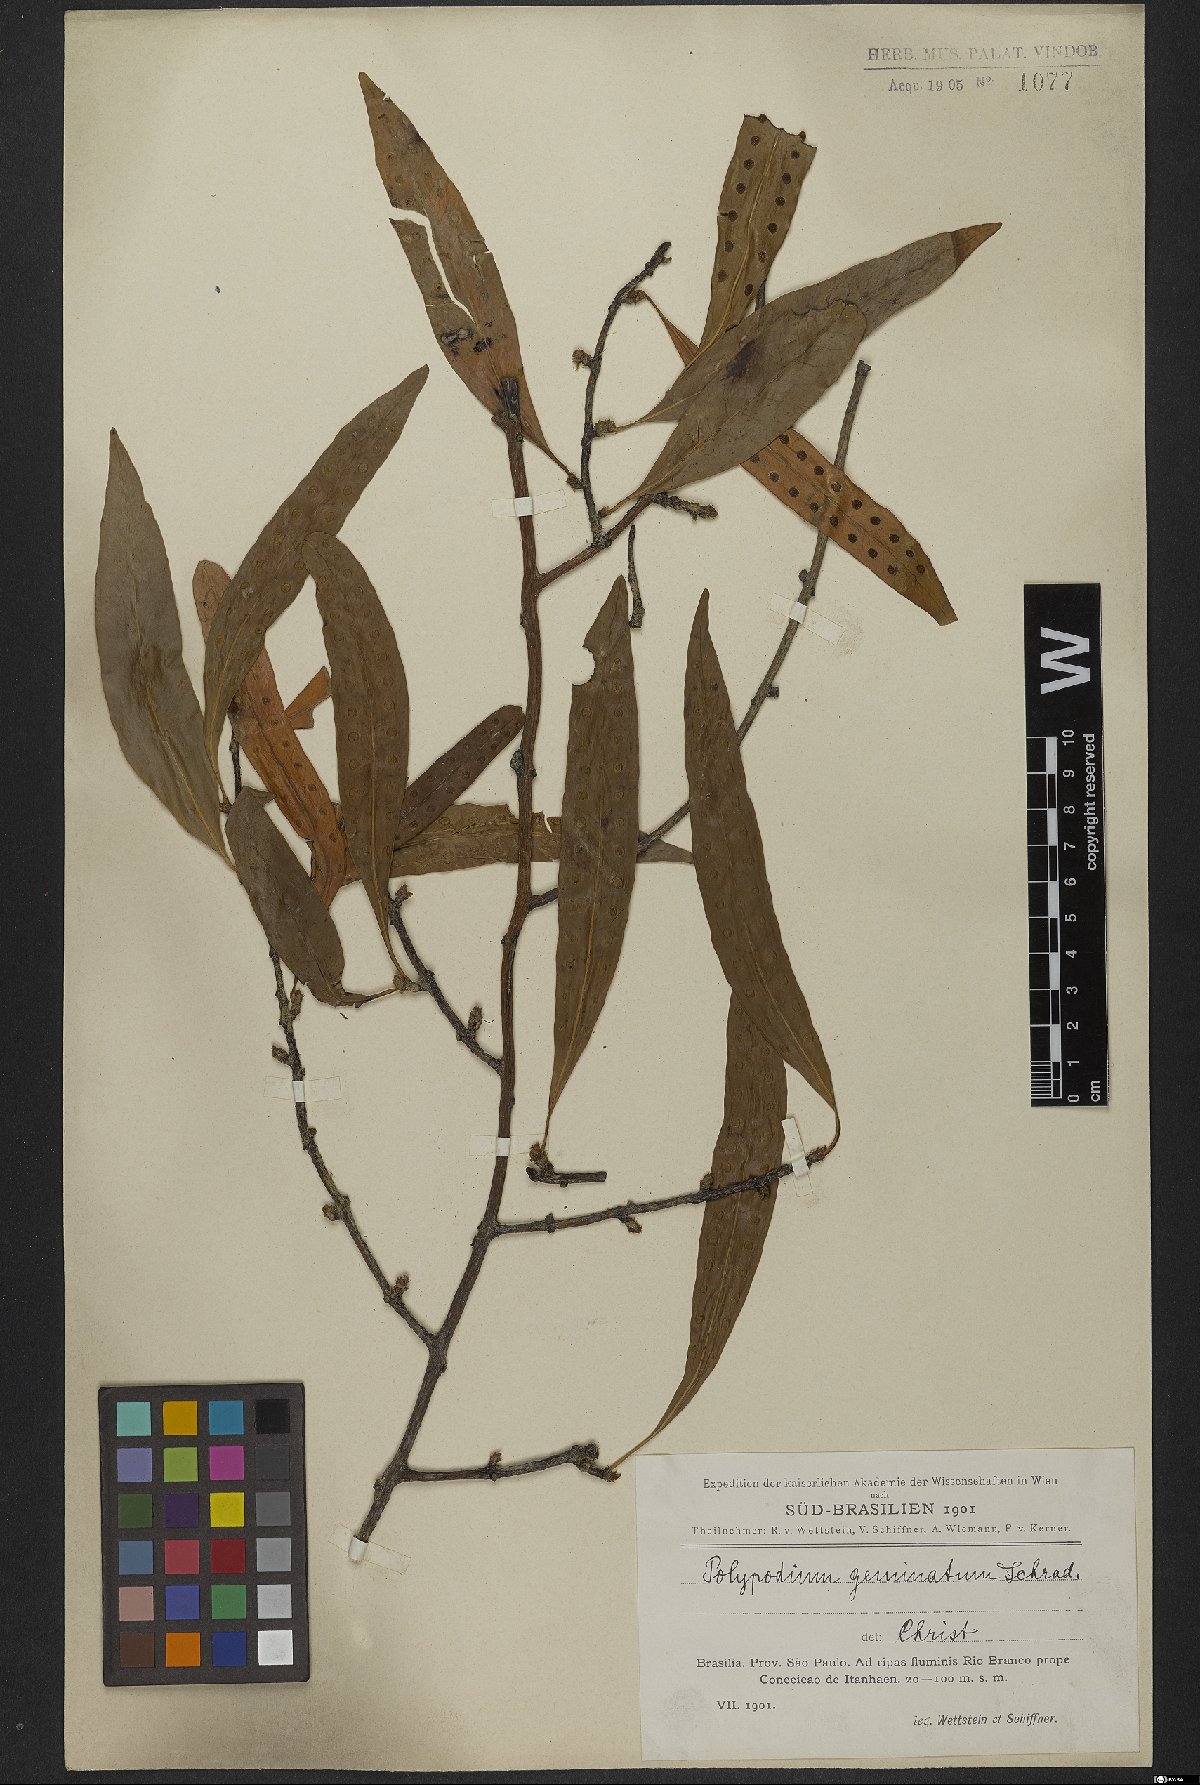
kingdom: Plantae
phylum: Tracheophyta
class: Polypodiopsida
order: Polypodiales
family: Polypodiaceae
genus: Microgramma
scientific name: Microgramma geminata
